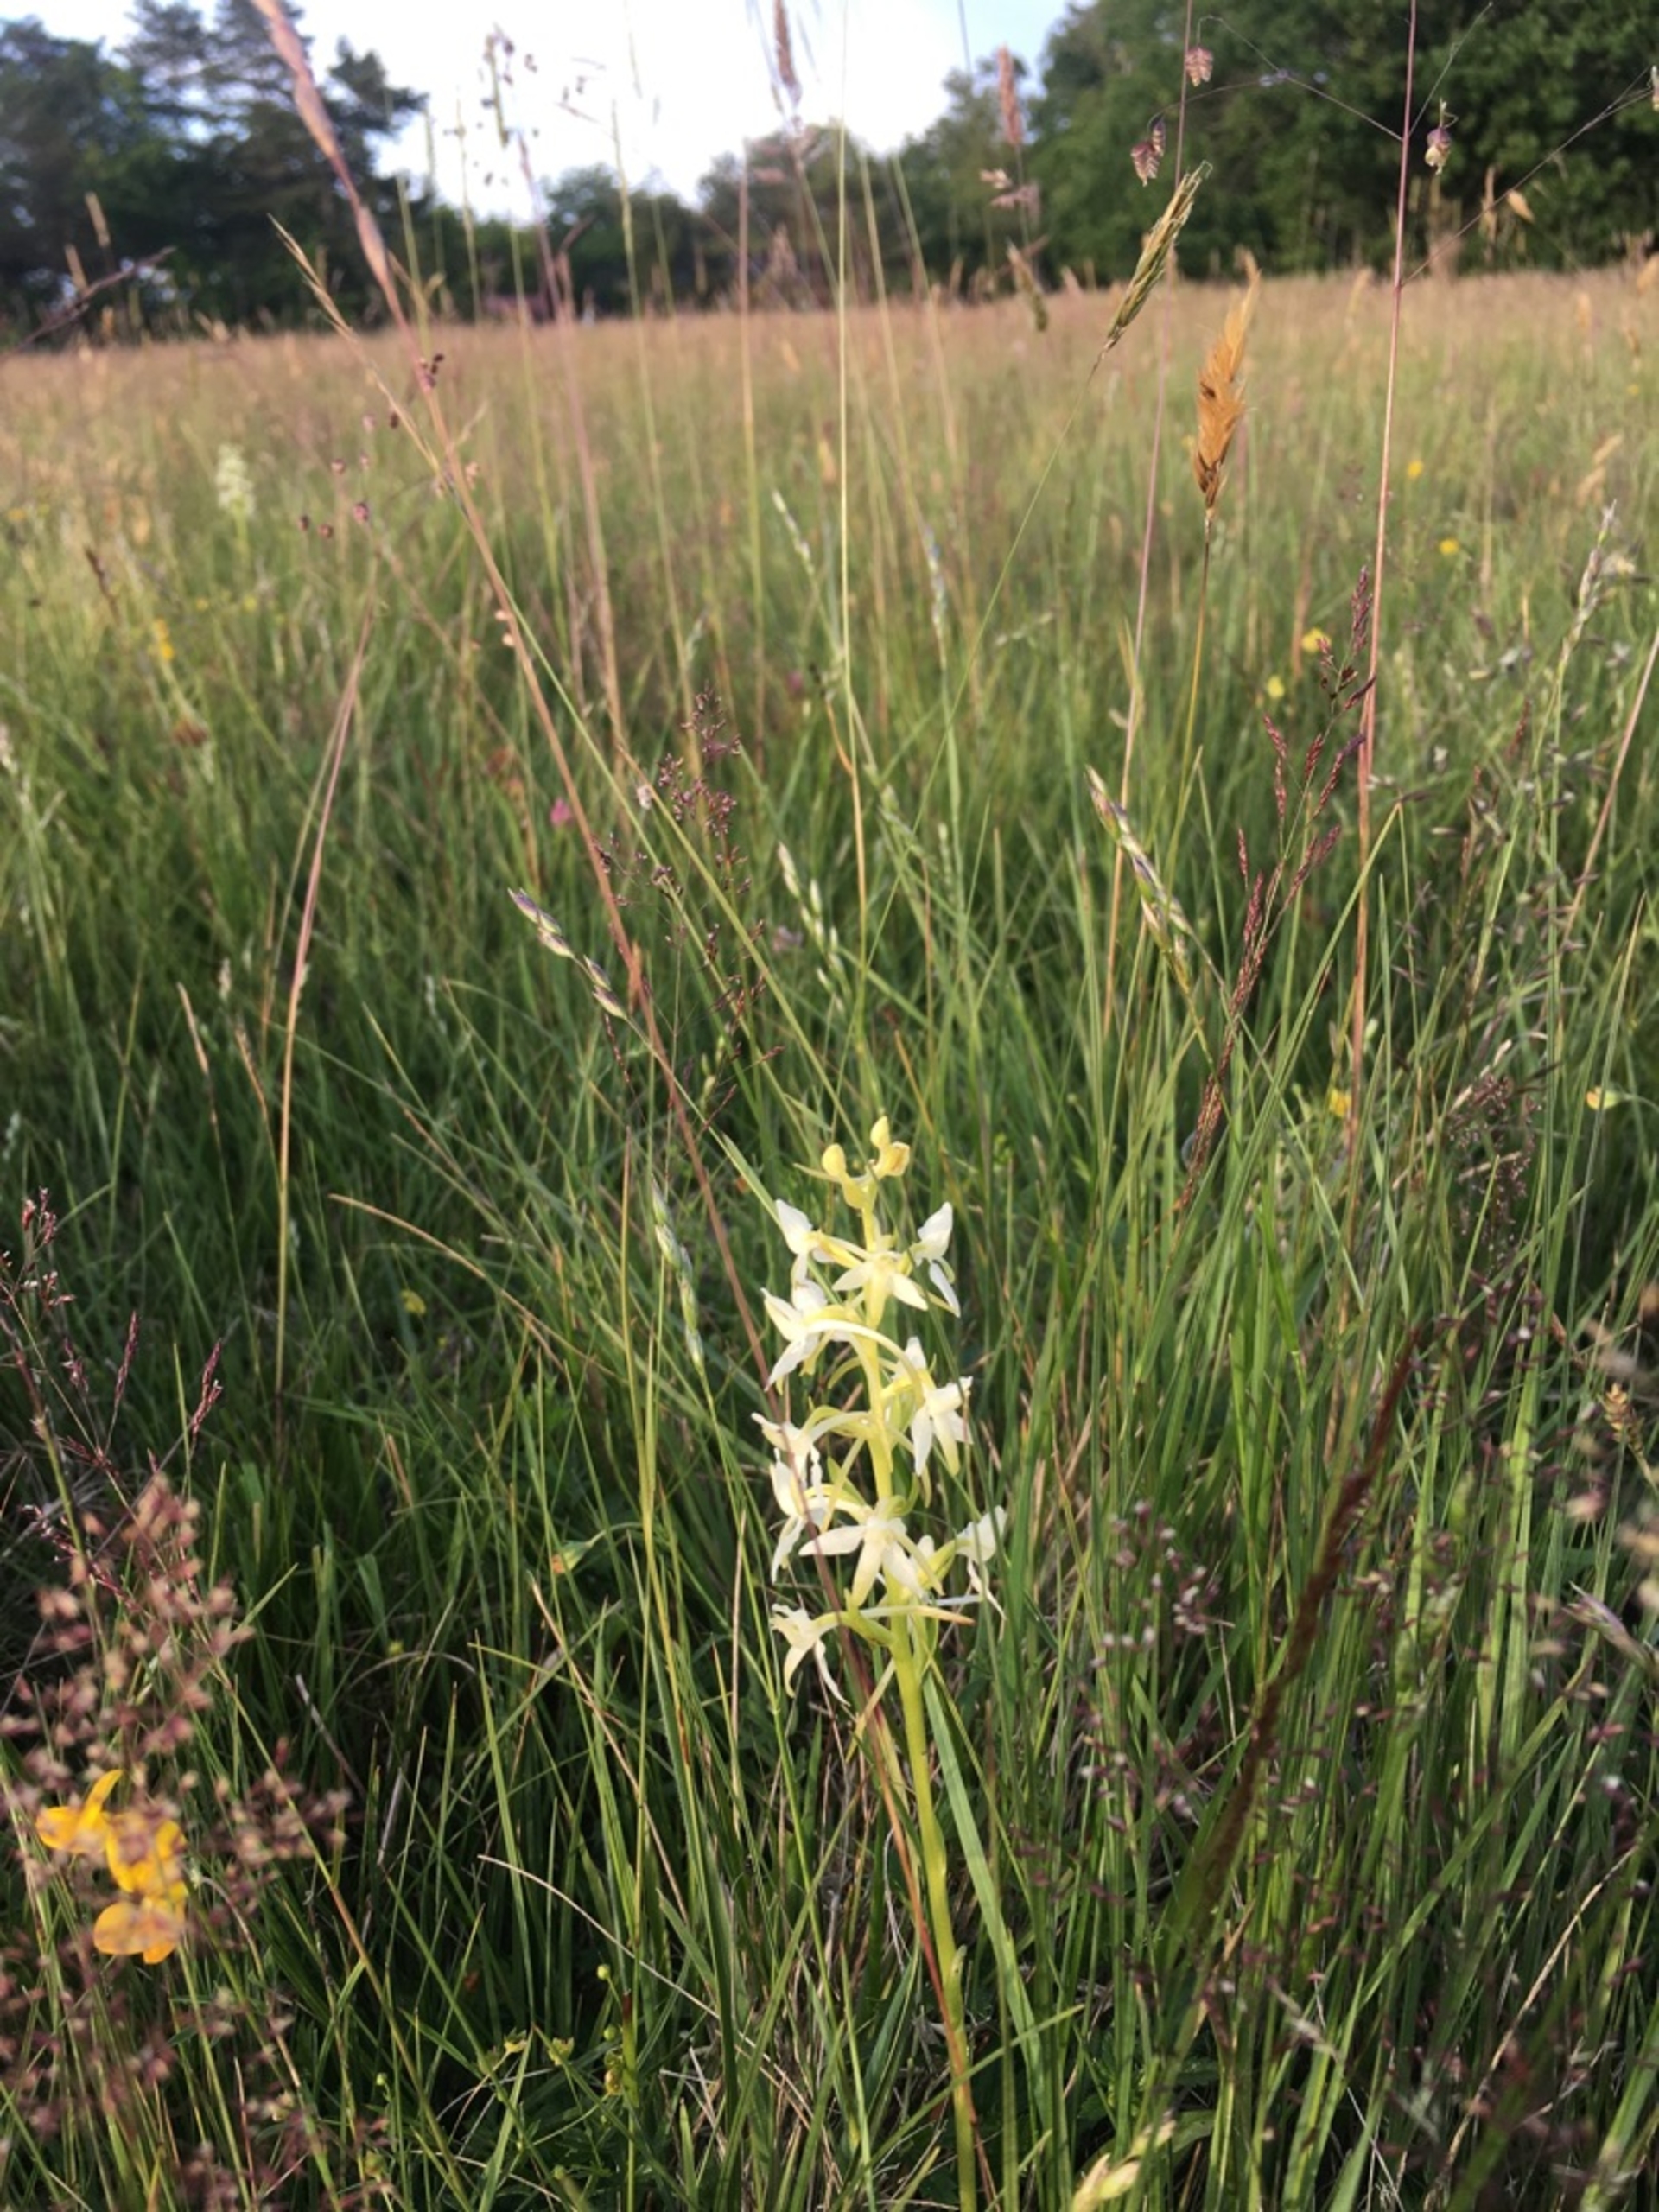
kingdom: Plantae
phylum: Tracheophyta
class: Liliopsida
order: Asparagales
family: Orchidaceae
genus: Platanthera
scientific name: Platanthera bifolia
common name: Bakke-gøgelilje
